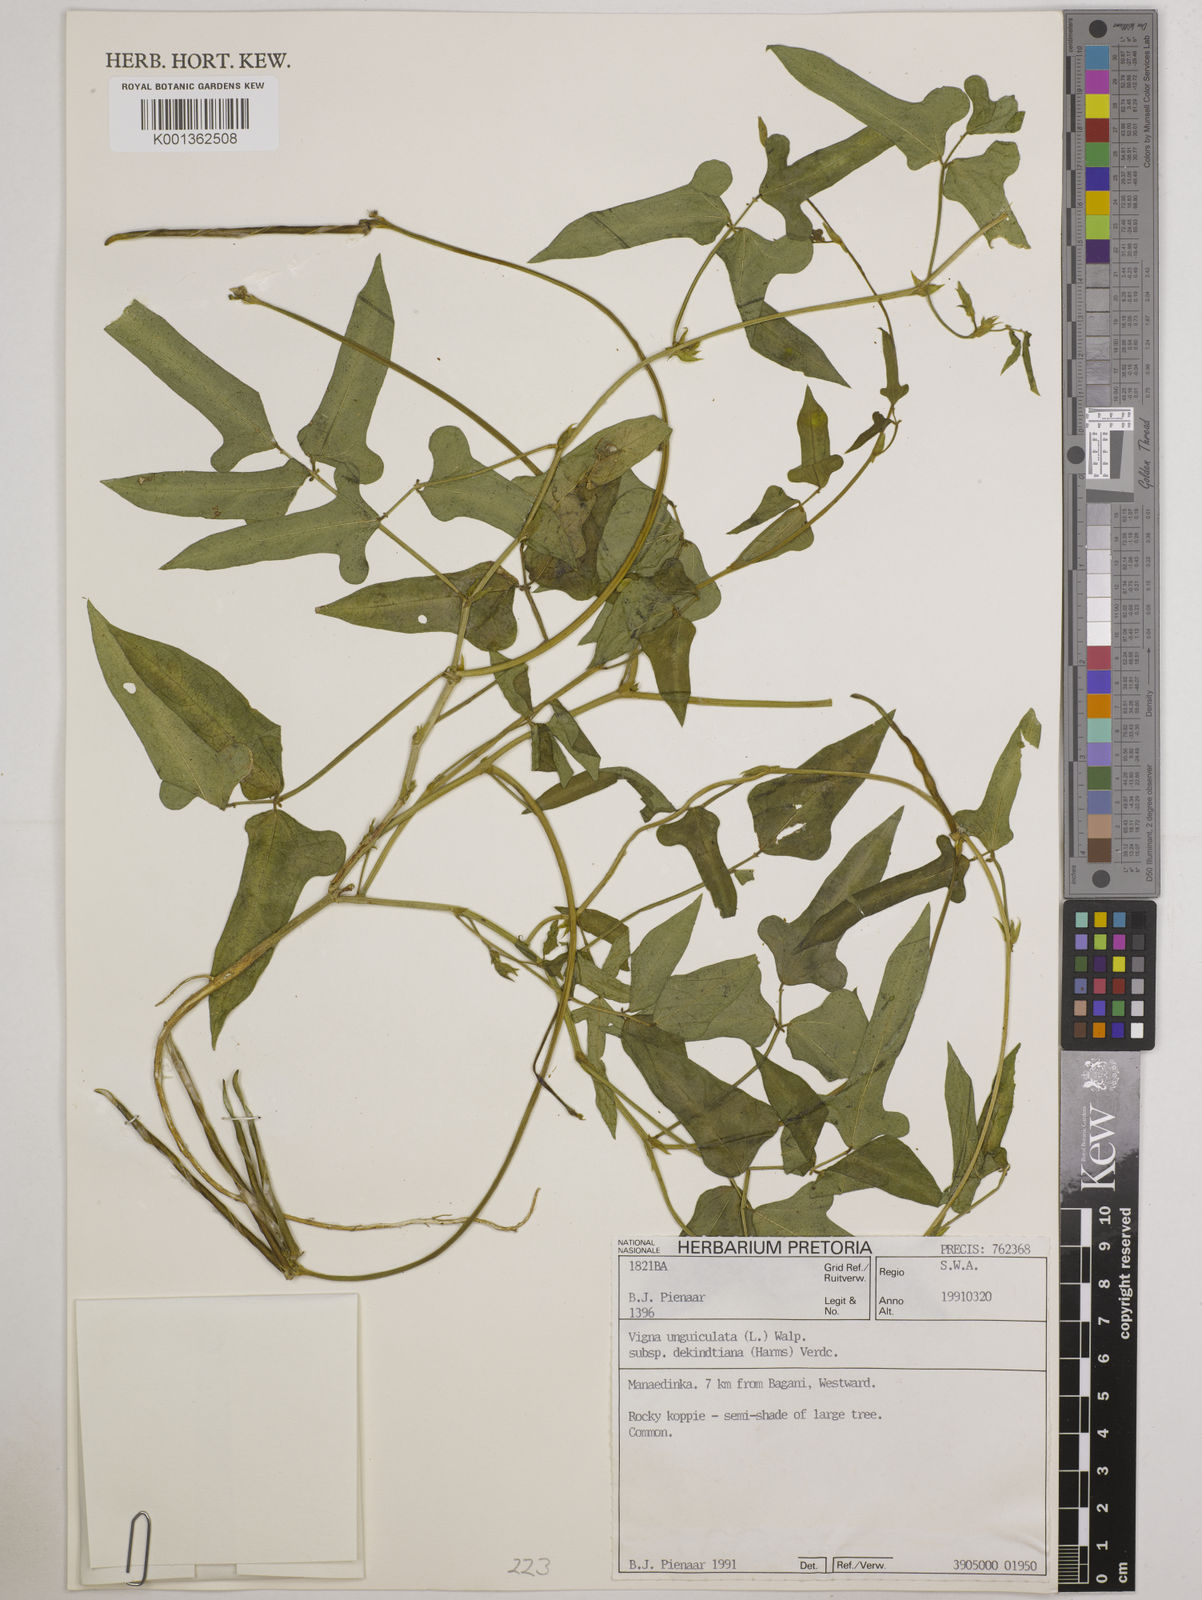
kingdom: Plantae
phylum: Tracheophyta
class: Magnoliopsida
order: Fabales
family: Fabaceae
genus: Vigna
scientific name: Vigna
